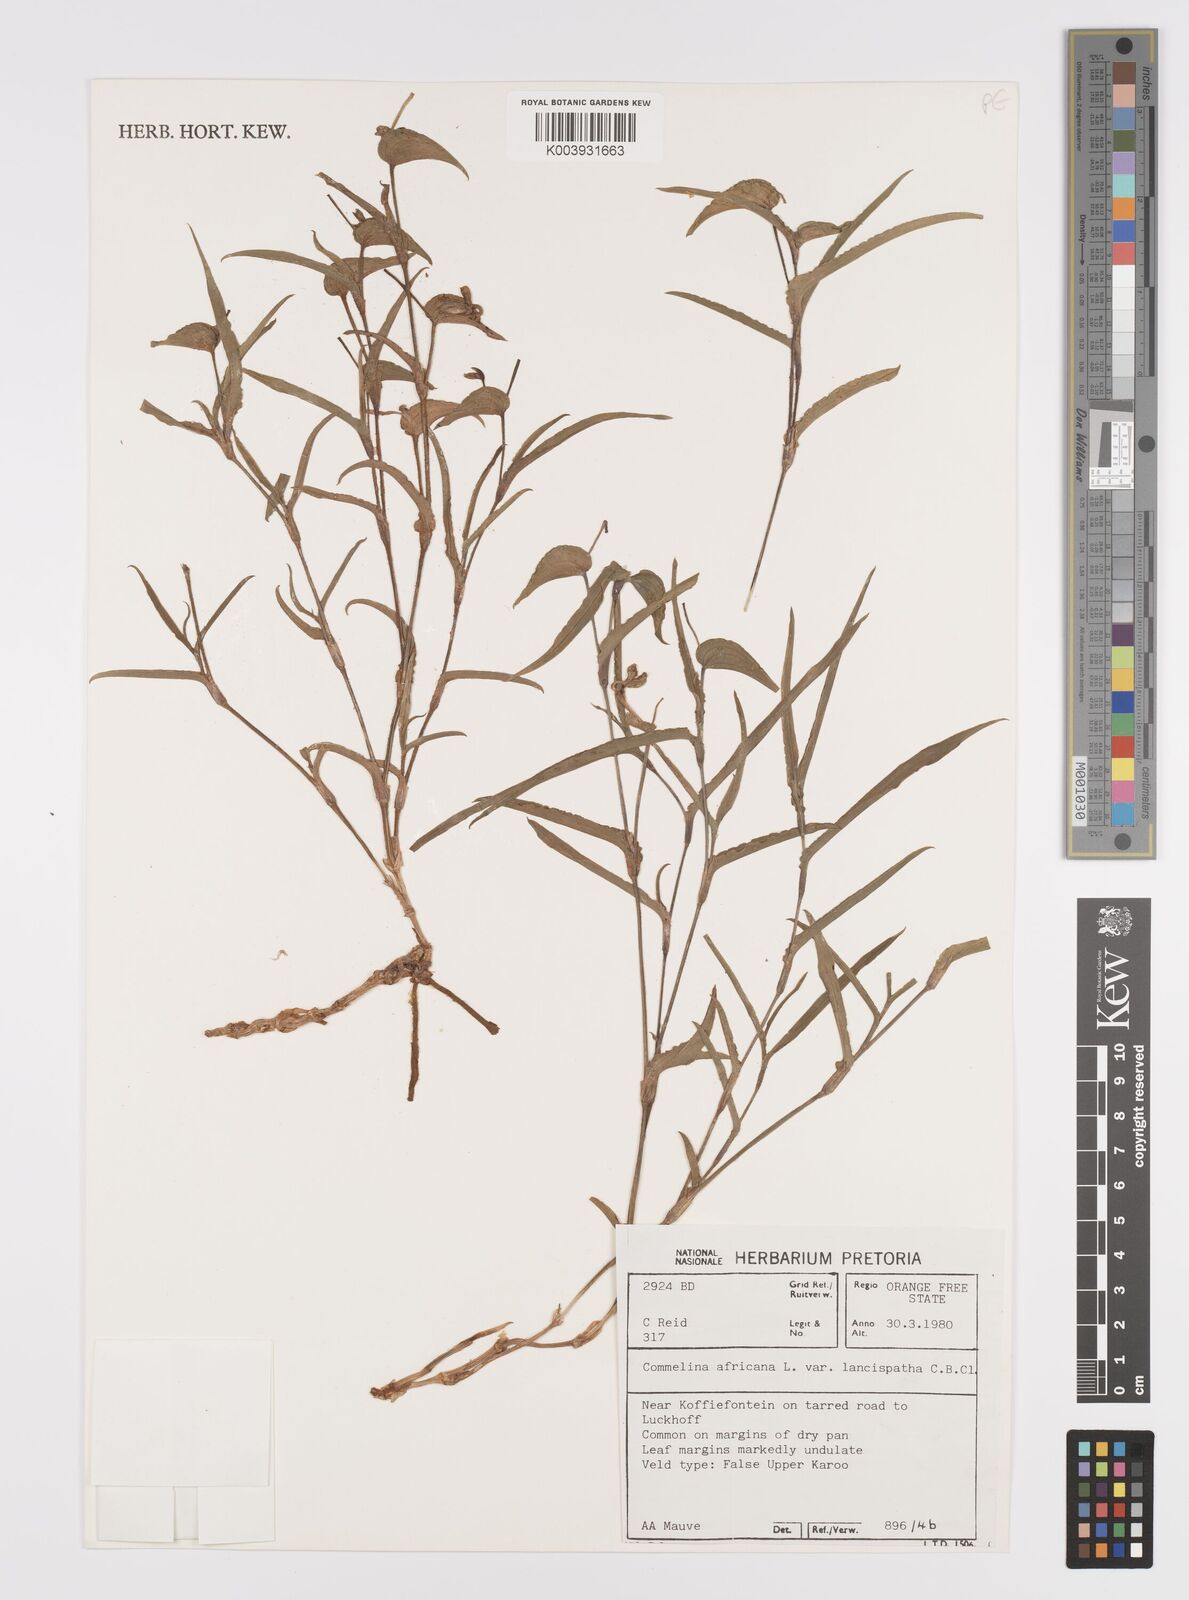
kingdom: Plantae
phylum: Tracheophyta
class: Liliopsida
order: Commelinales
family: Commelinaceae
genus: Commelina
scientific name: Commelina africana
